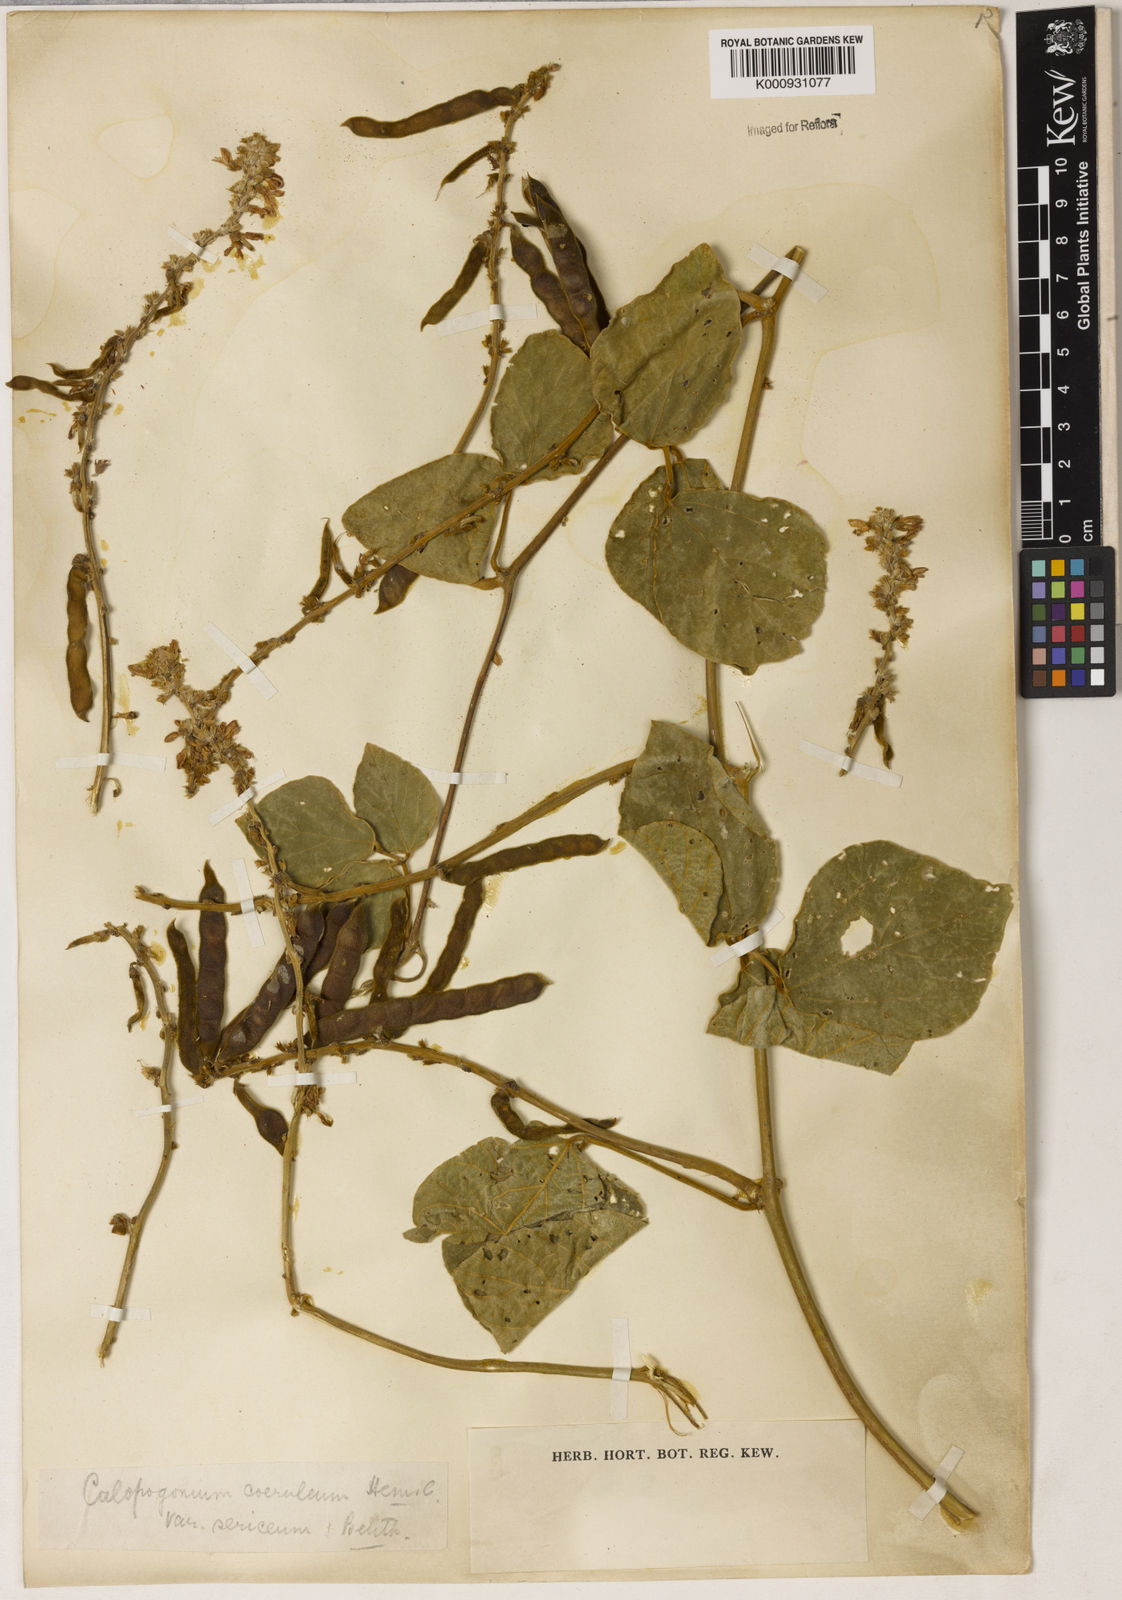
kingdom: Plantae
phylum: Tracheophyta
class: Magnoliopsida
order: Fabales
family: Fabaceae
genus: Calopogonium
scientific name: Calopogonium caeruleum
